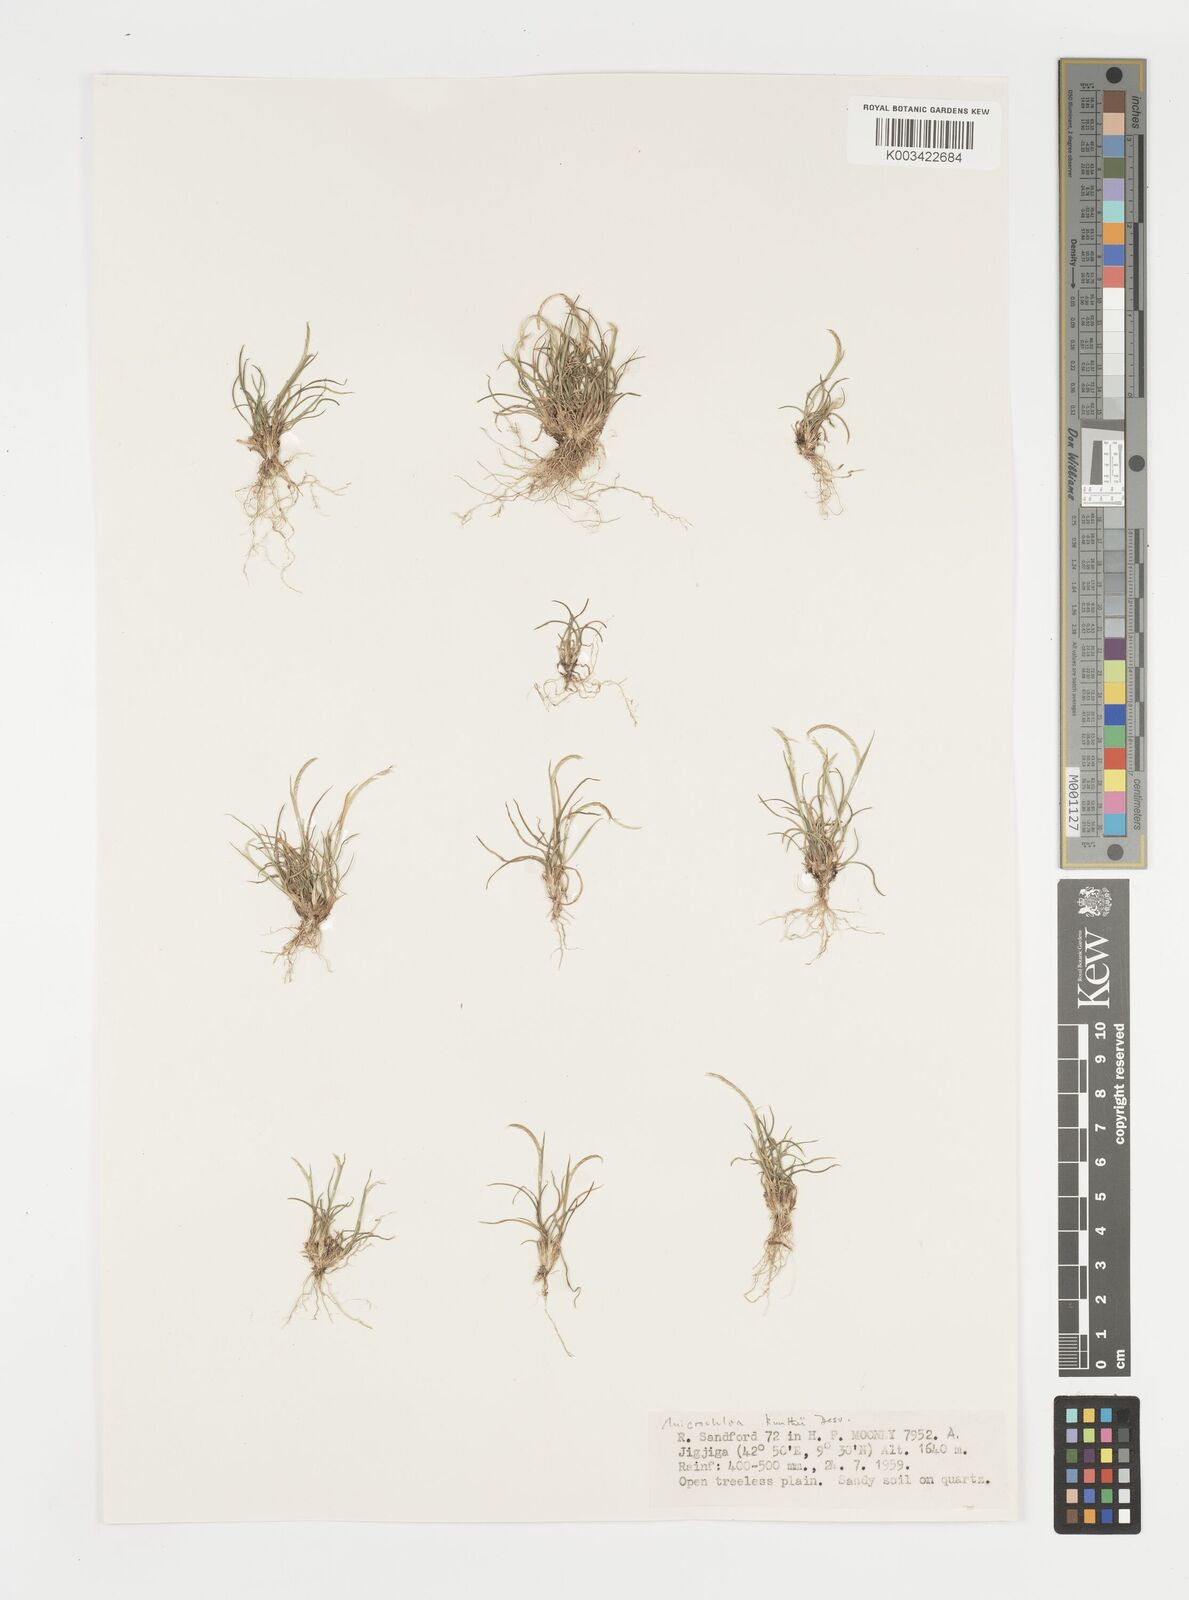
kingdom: Plantae
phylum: Tracheophyta
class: Liliopsida
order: Poales
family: Poaceae
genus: Microchloa
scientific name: Microchloa kunthii
